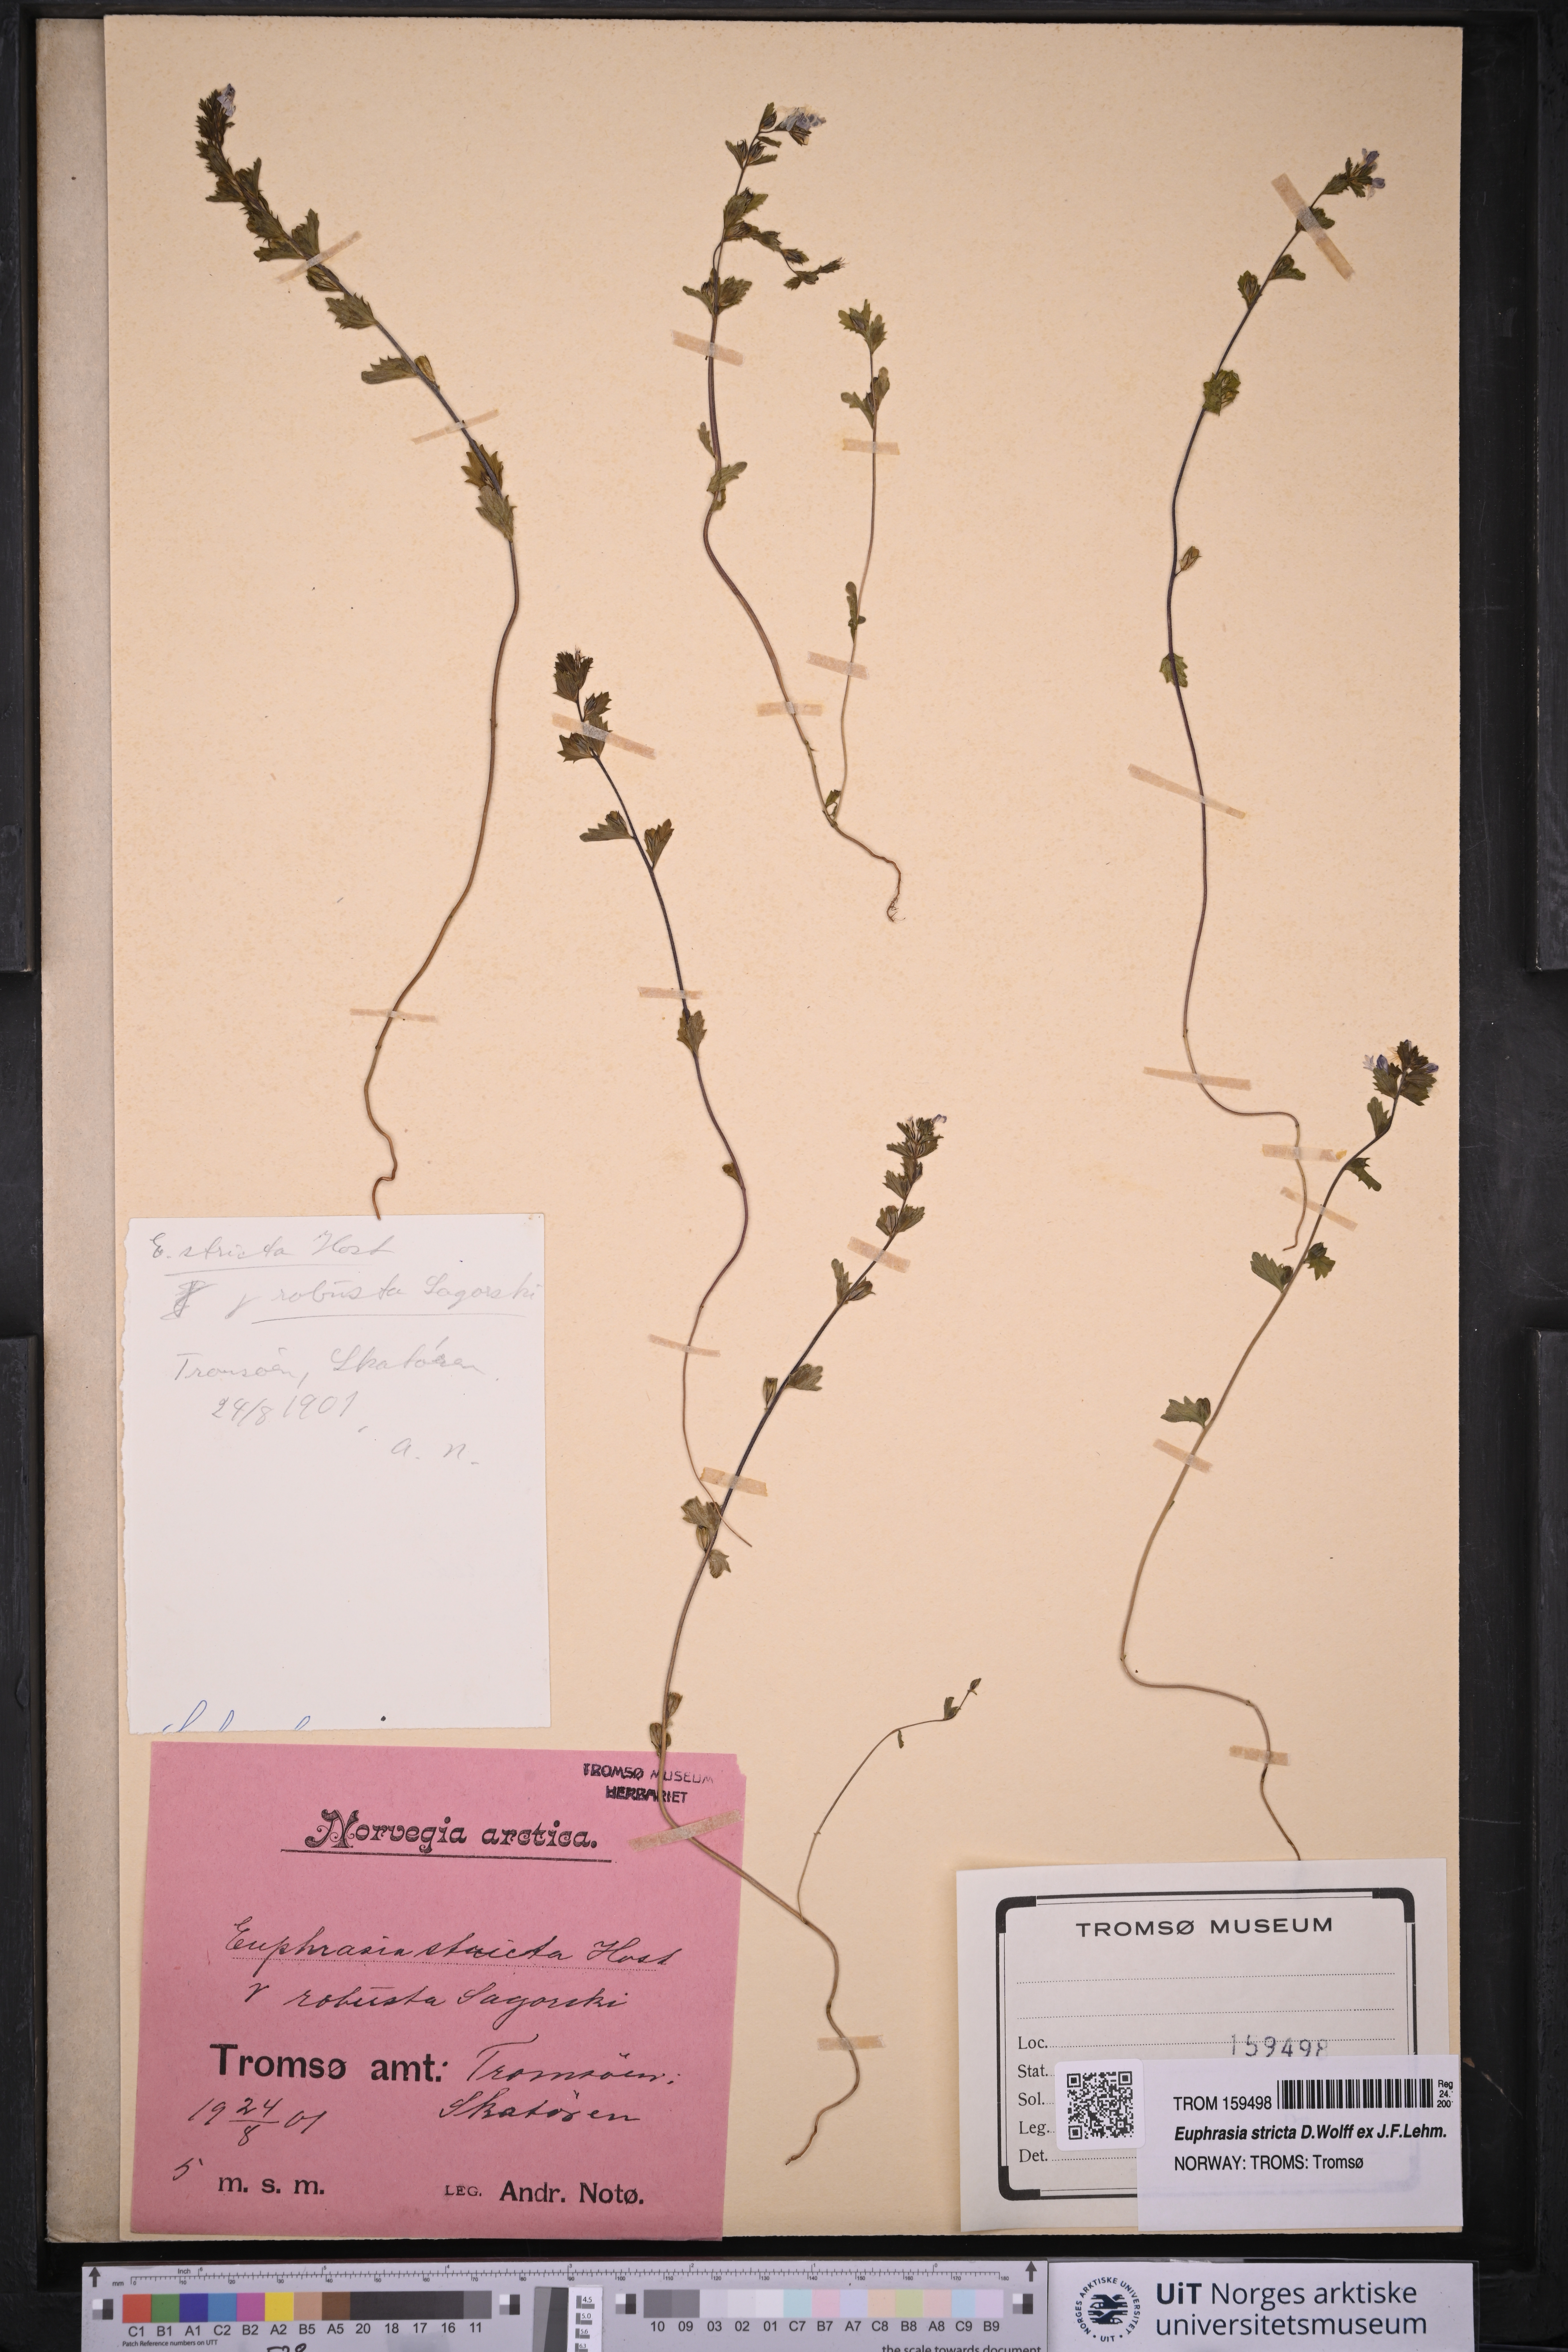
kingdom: Plantae
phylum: Tracheophyta
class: Magnoliopsida
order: Lamiales
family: Orobanchaceae
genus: Euphrasia
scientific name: Euphrasia stricta
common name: Drug eyebright
